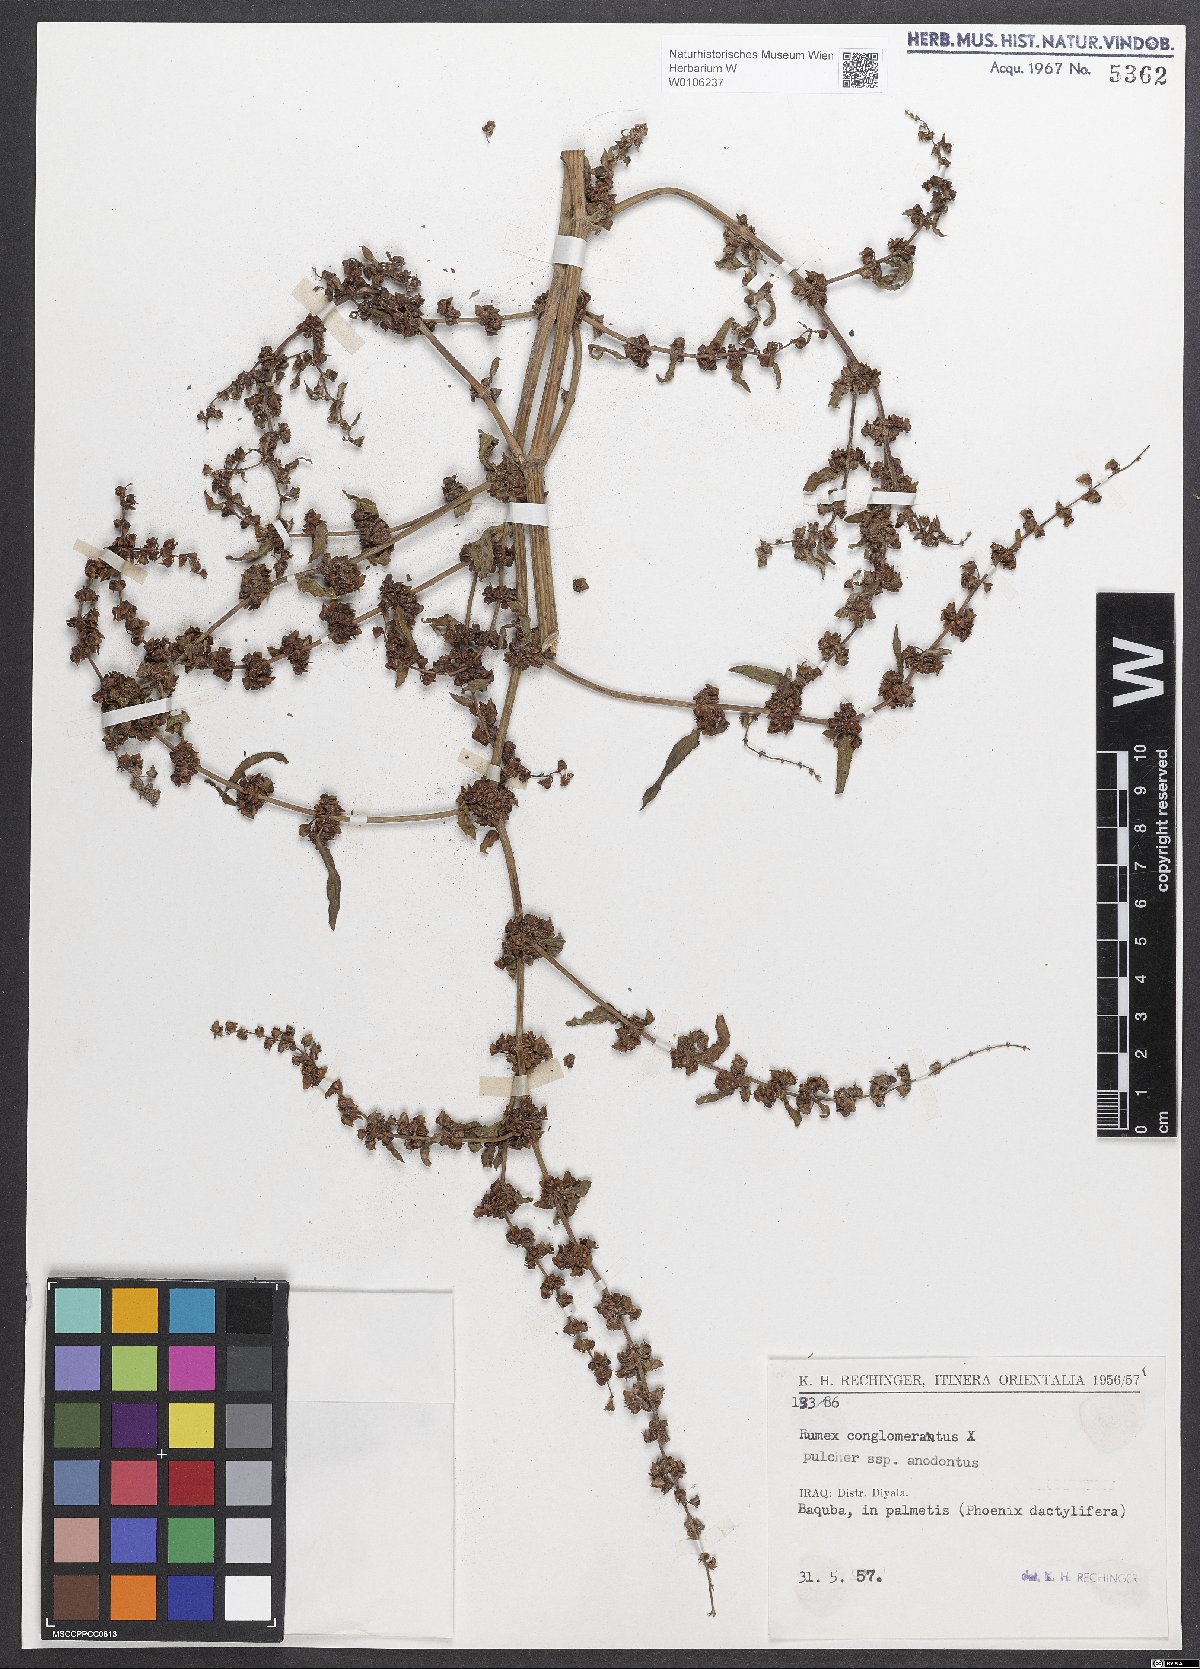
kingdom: Plantae
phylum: Tracheophyta
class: Magnoliopsida
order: Caryophyllales
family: Polygonaceae
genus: Rumex
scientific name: Rumex
